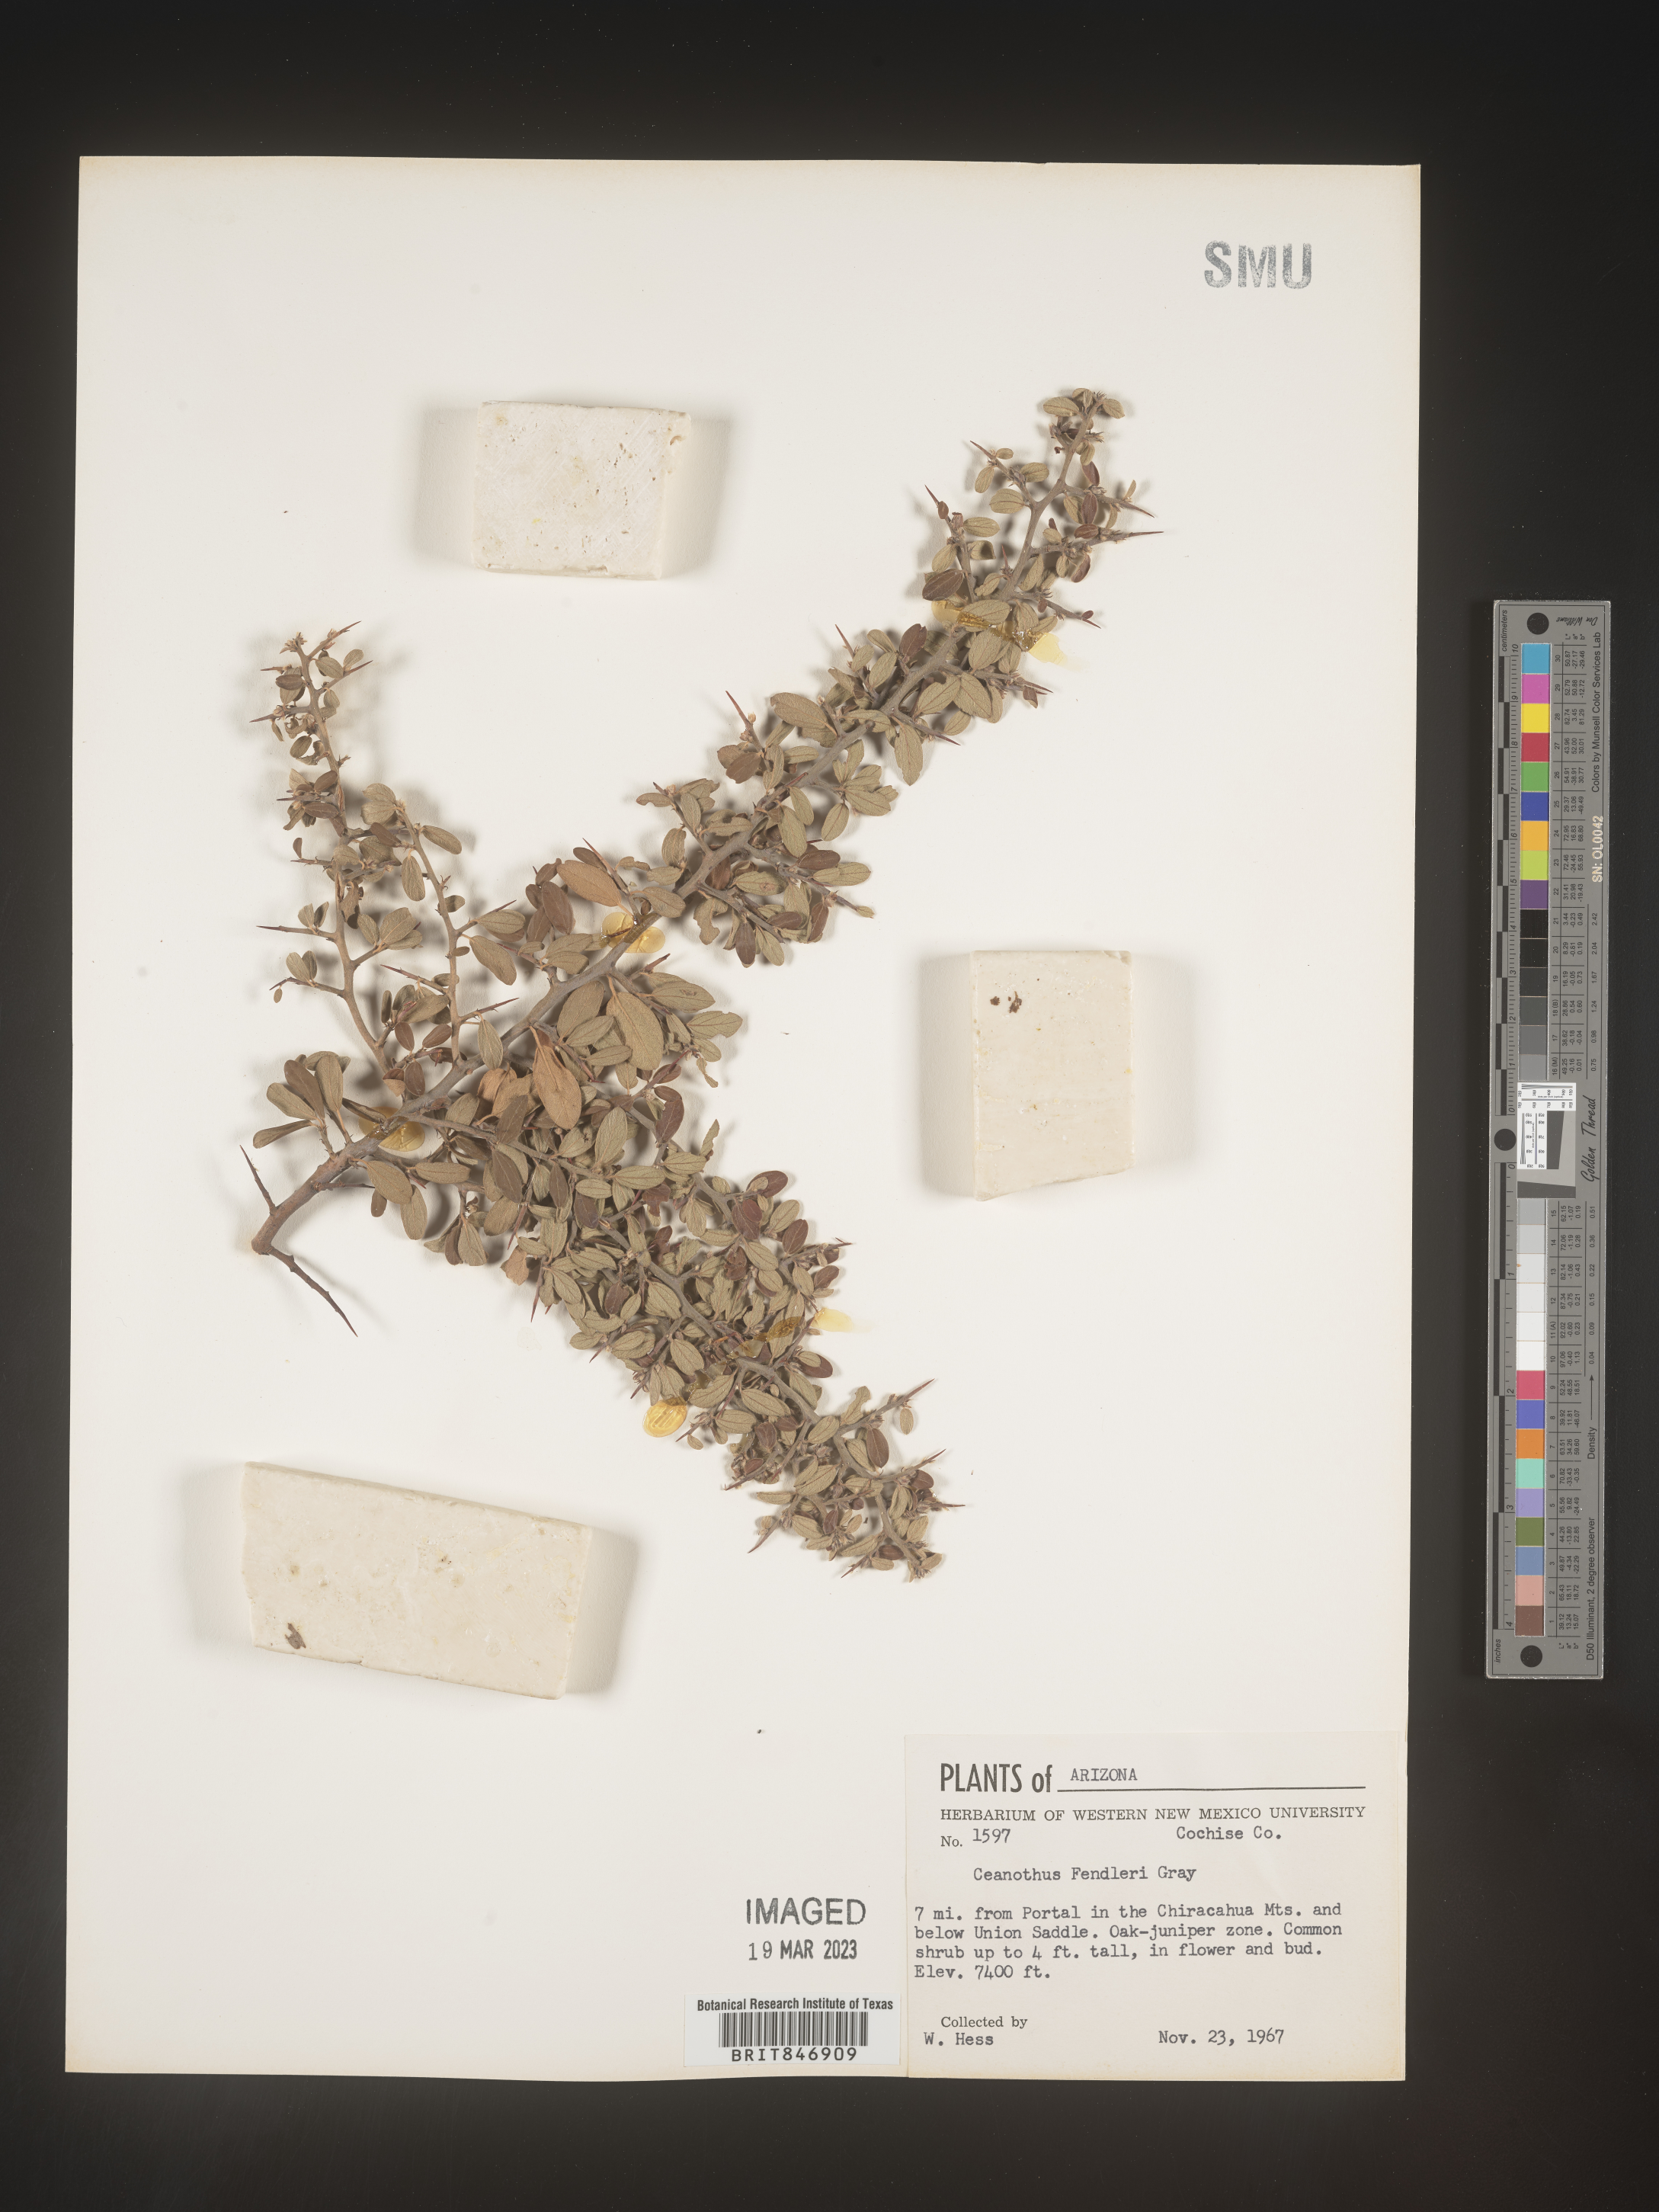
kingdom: Plantae
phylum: Tracheophyta
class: Magnoliopsida
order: Rosales
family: Rhamnaceae
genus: Ceanothus
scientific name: Ceanothus fendleri
